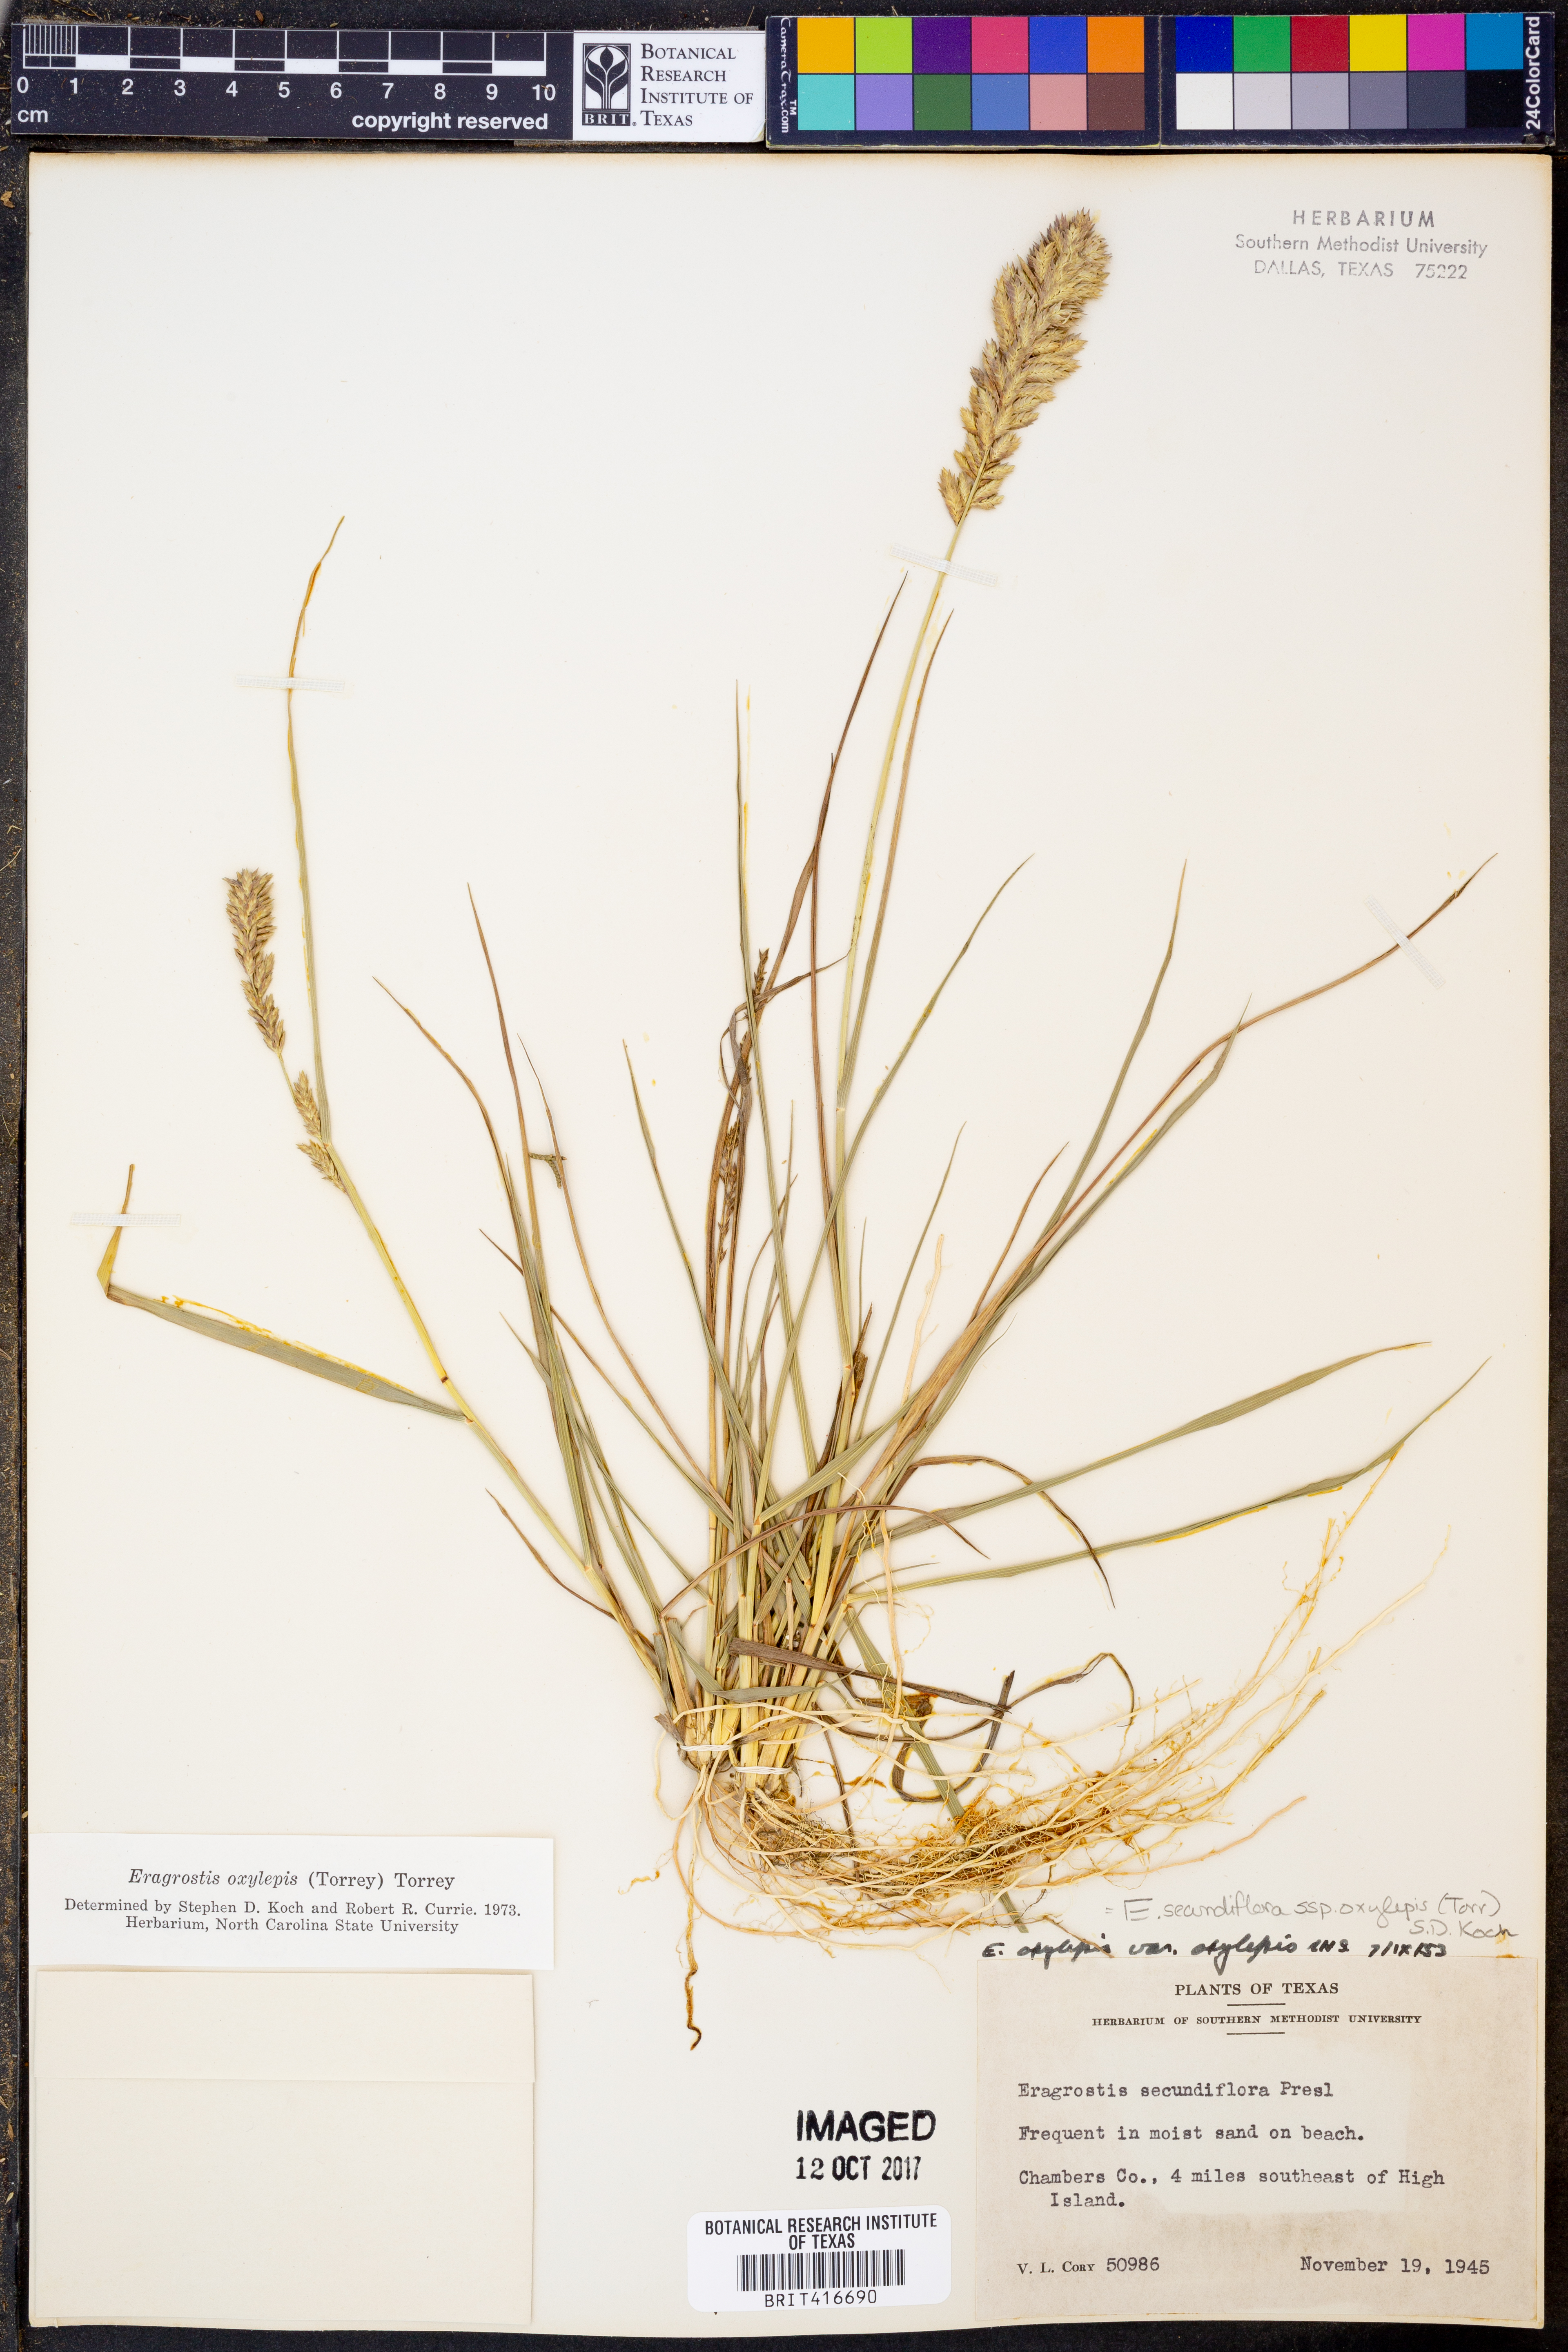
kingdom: Plantae
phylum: Tracheophyta
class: Liliopsida
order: Poales
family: Poaceae
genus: Eragrostis
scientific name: Eragrostis secundiflora
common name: Red love grass
